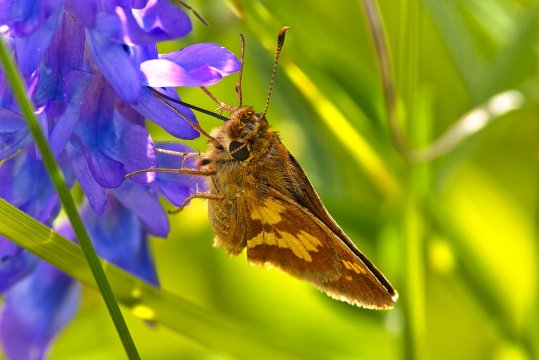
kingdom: Animalia
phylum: Arthropoda
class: Insecta
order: Lepidoptera
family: Hesperiidae
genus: Polites
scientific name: Polites coras
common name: Peck's Skipper
